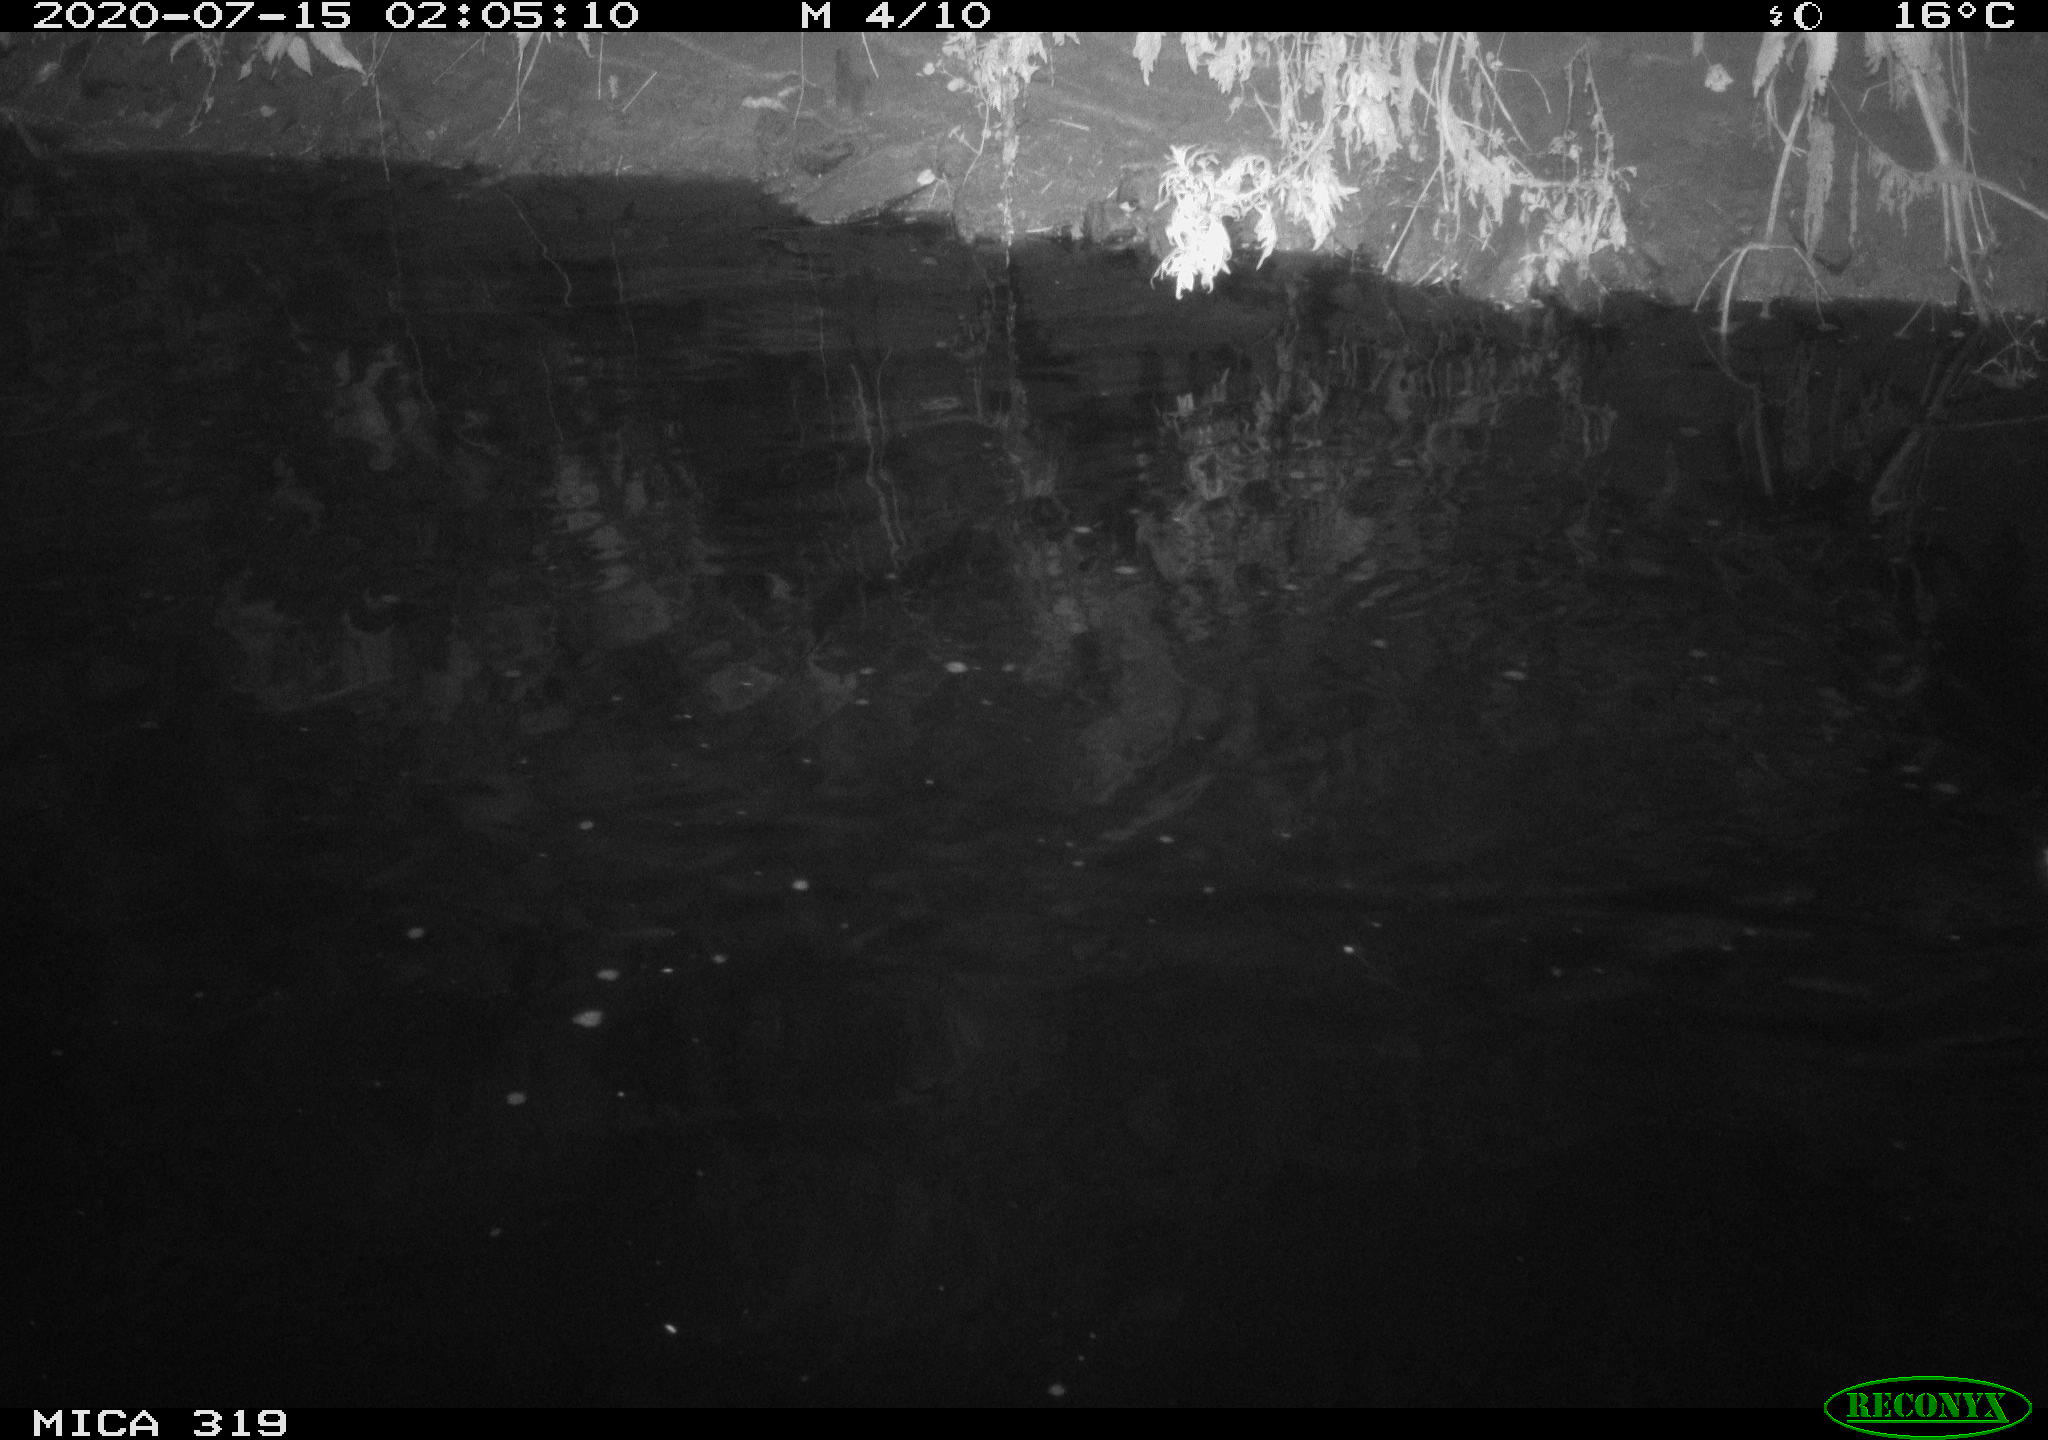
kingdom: Animalia
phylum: Chordata
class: Aves
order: Anseriformes
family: Anatidae
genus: Anas
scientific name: Anas platyrhynchos
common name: Mallard
